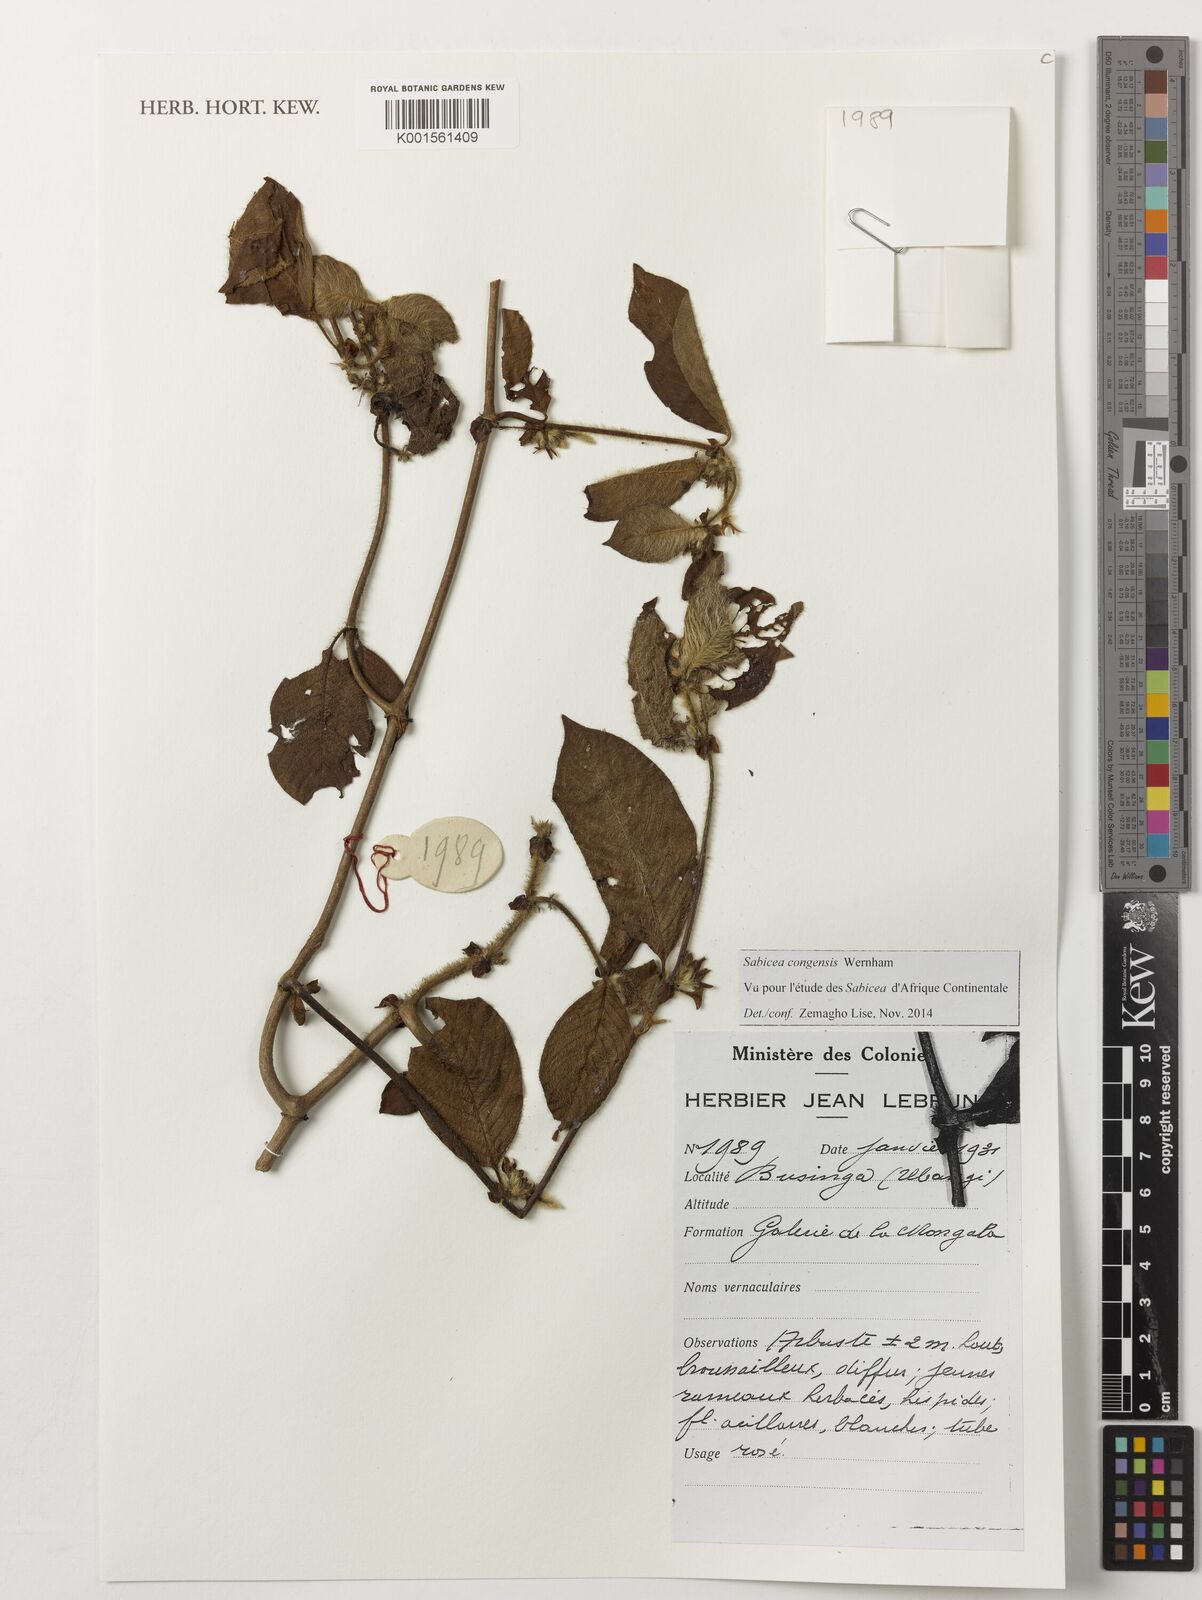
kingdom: Plantae
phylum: Tracheophyta
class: Magnoliopsida
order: Gentianales
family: Rubiaceae
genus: Sabicea
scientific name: Sabicea congensis
